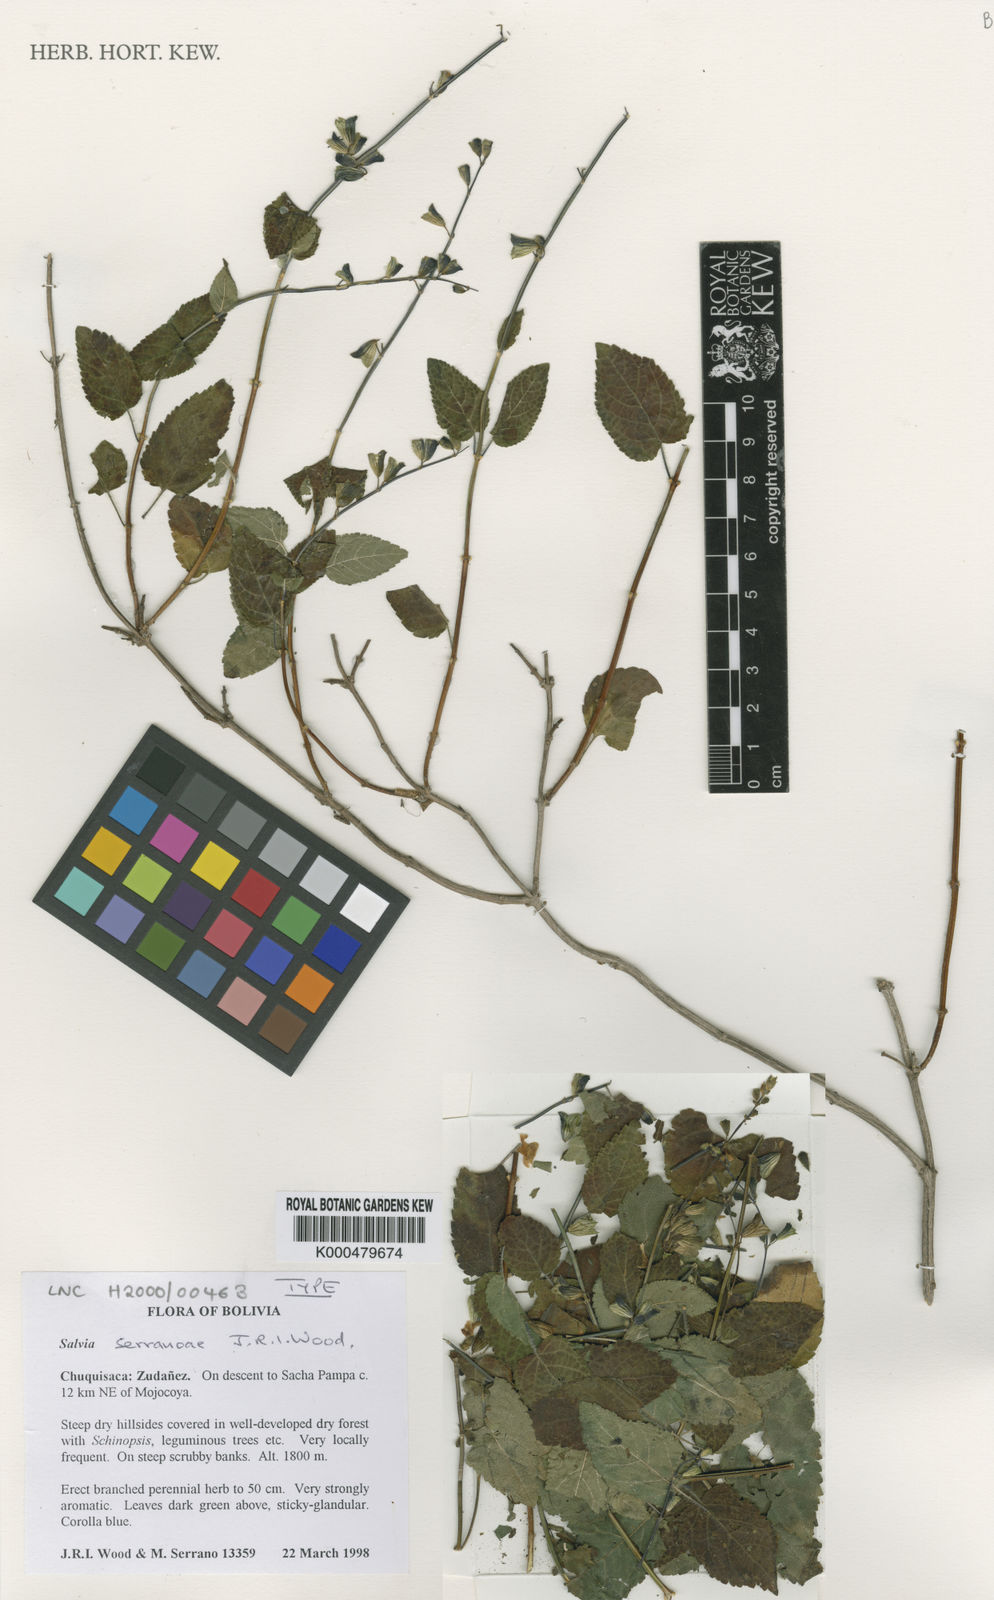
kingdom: Plantae
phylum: Tracheophyta
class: Magnoliopsida
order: Lamiales
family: Lamiaceae
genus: Salvia
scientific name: Salvia serranoae
